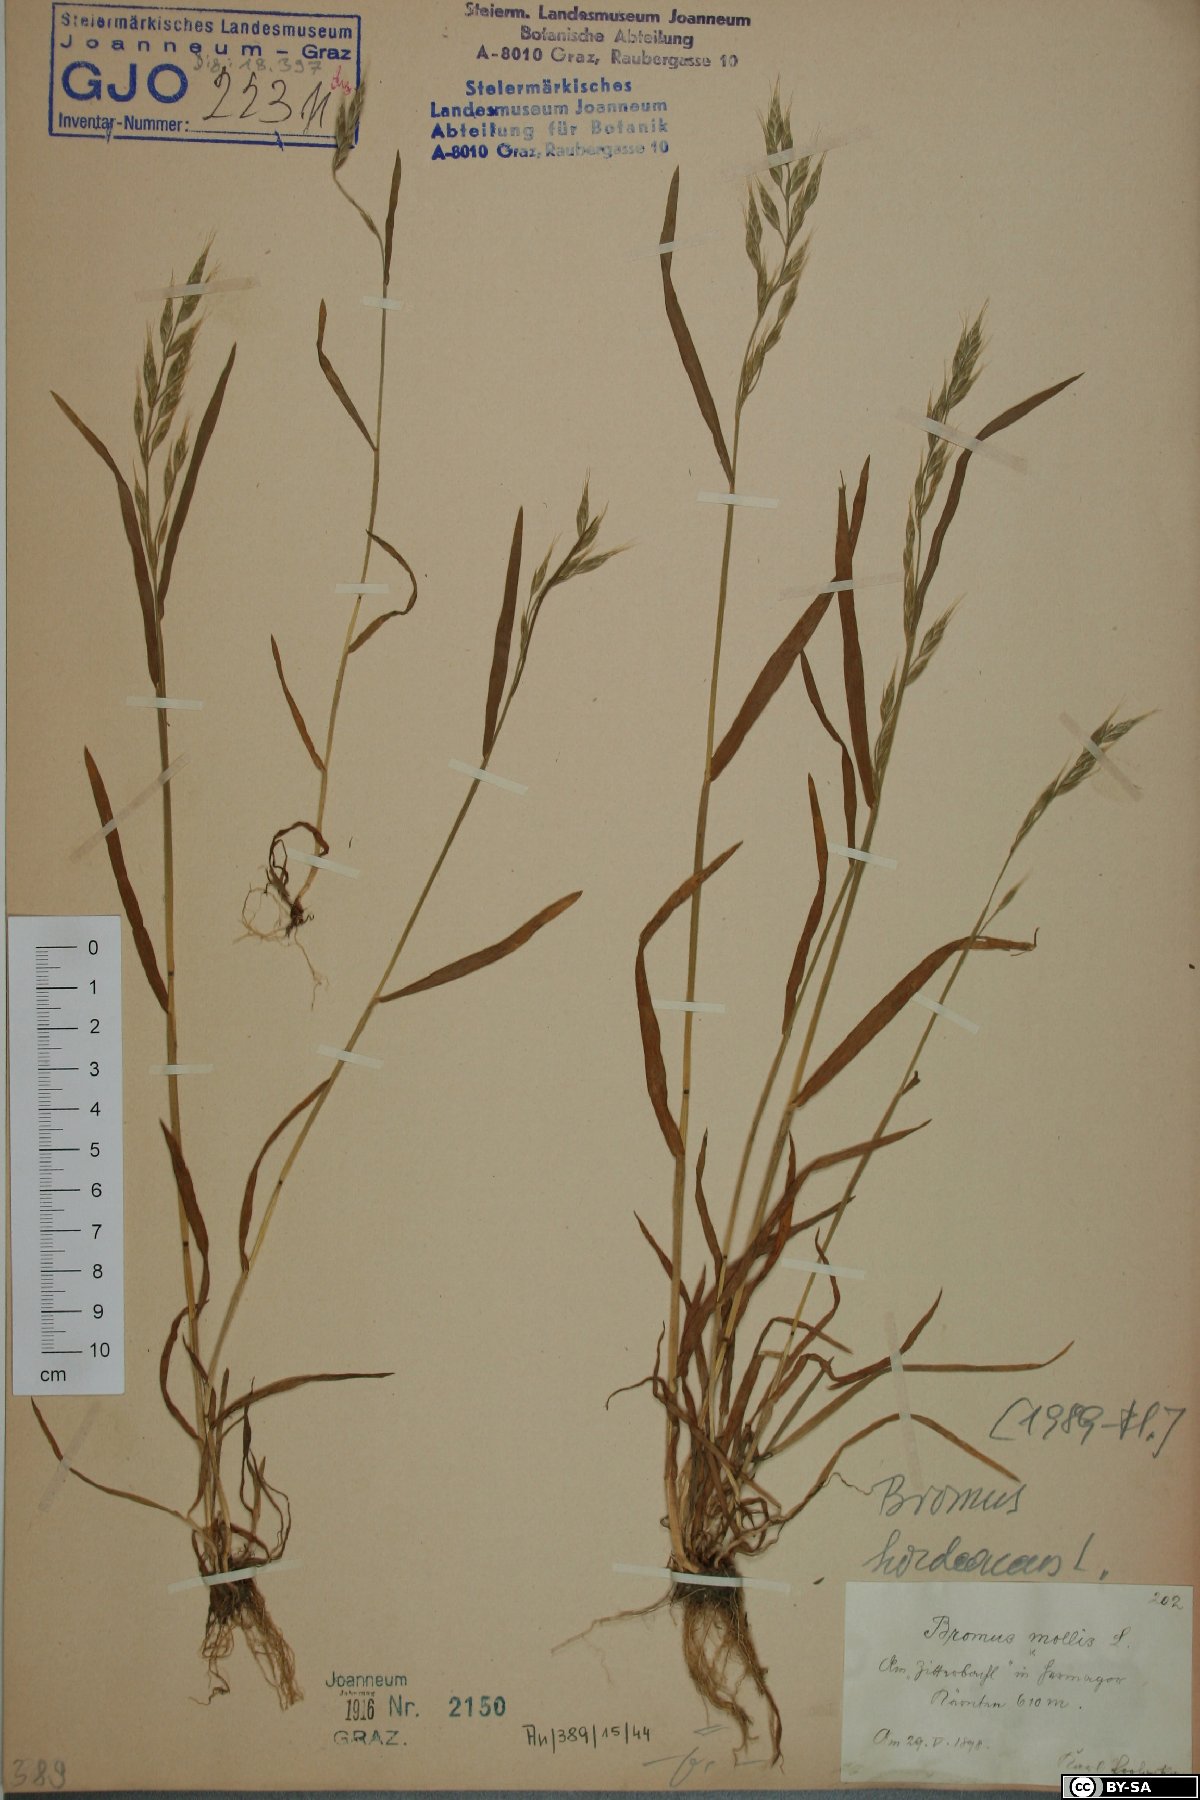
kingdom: Plantae
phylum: Tracheophyta
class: Liliopsida
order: Poales
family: Poaceae
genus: Bromus
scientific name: Bromus hordeaceus
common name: Soft brome
